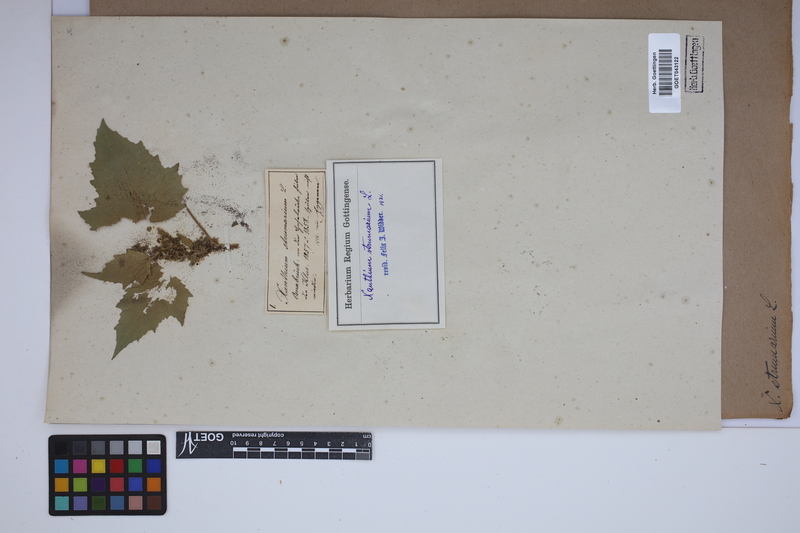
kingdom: Plantae
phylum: Tracheophyta
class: Magnoliopsida
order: Asterales
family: Asteraceae
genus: Xanthium
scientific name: Xanthium strumarium
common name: Rough cocklebur
